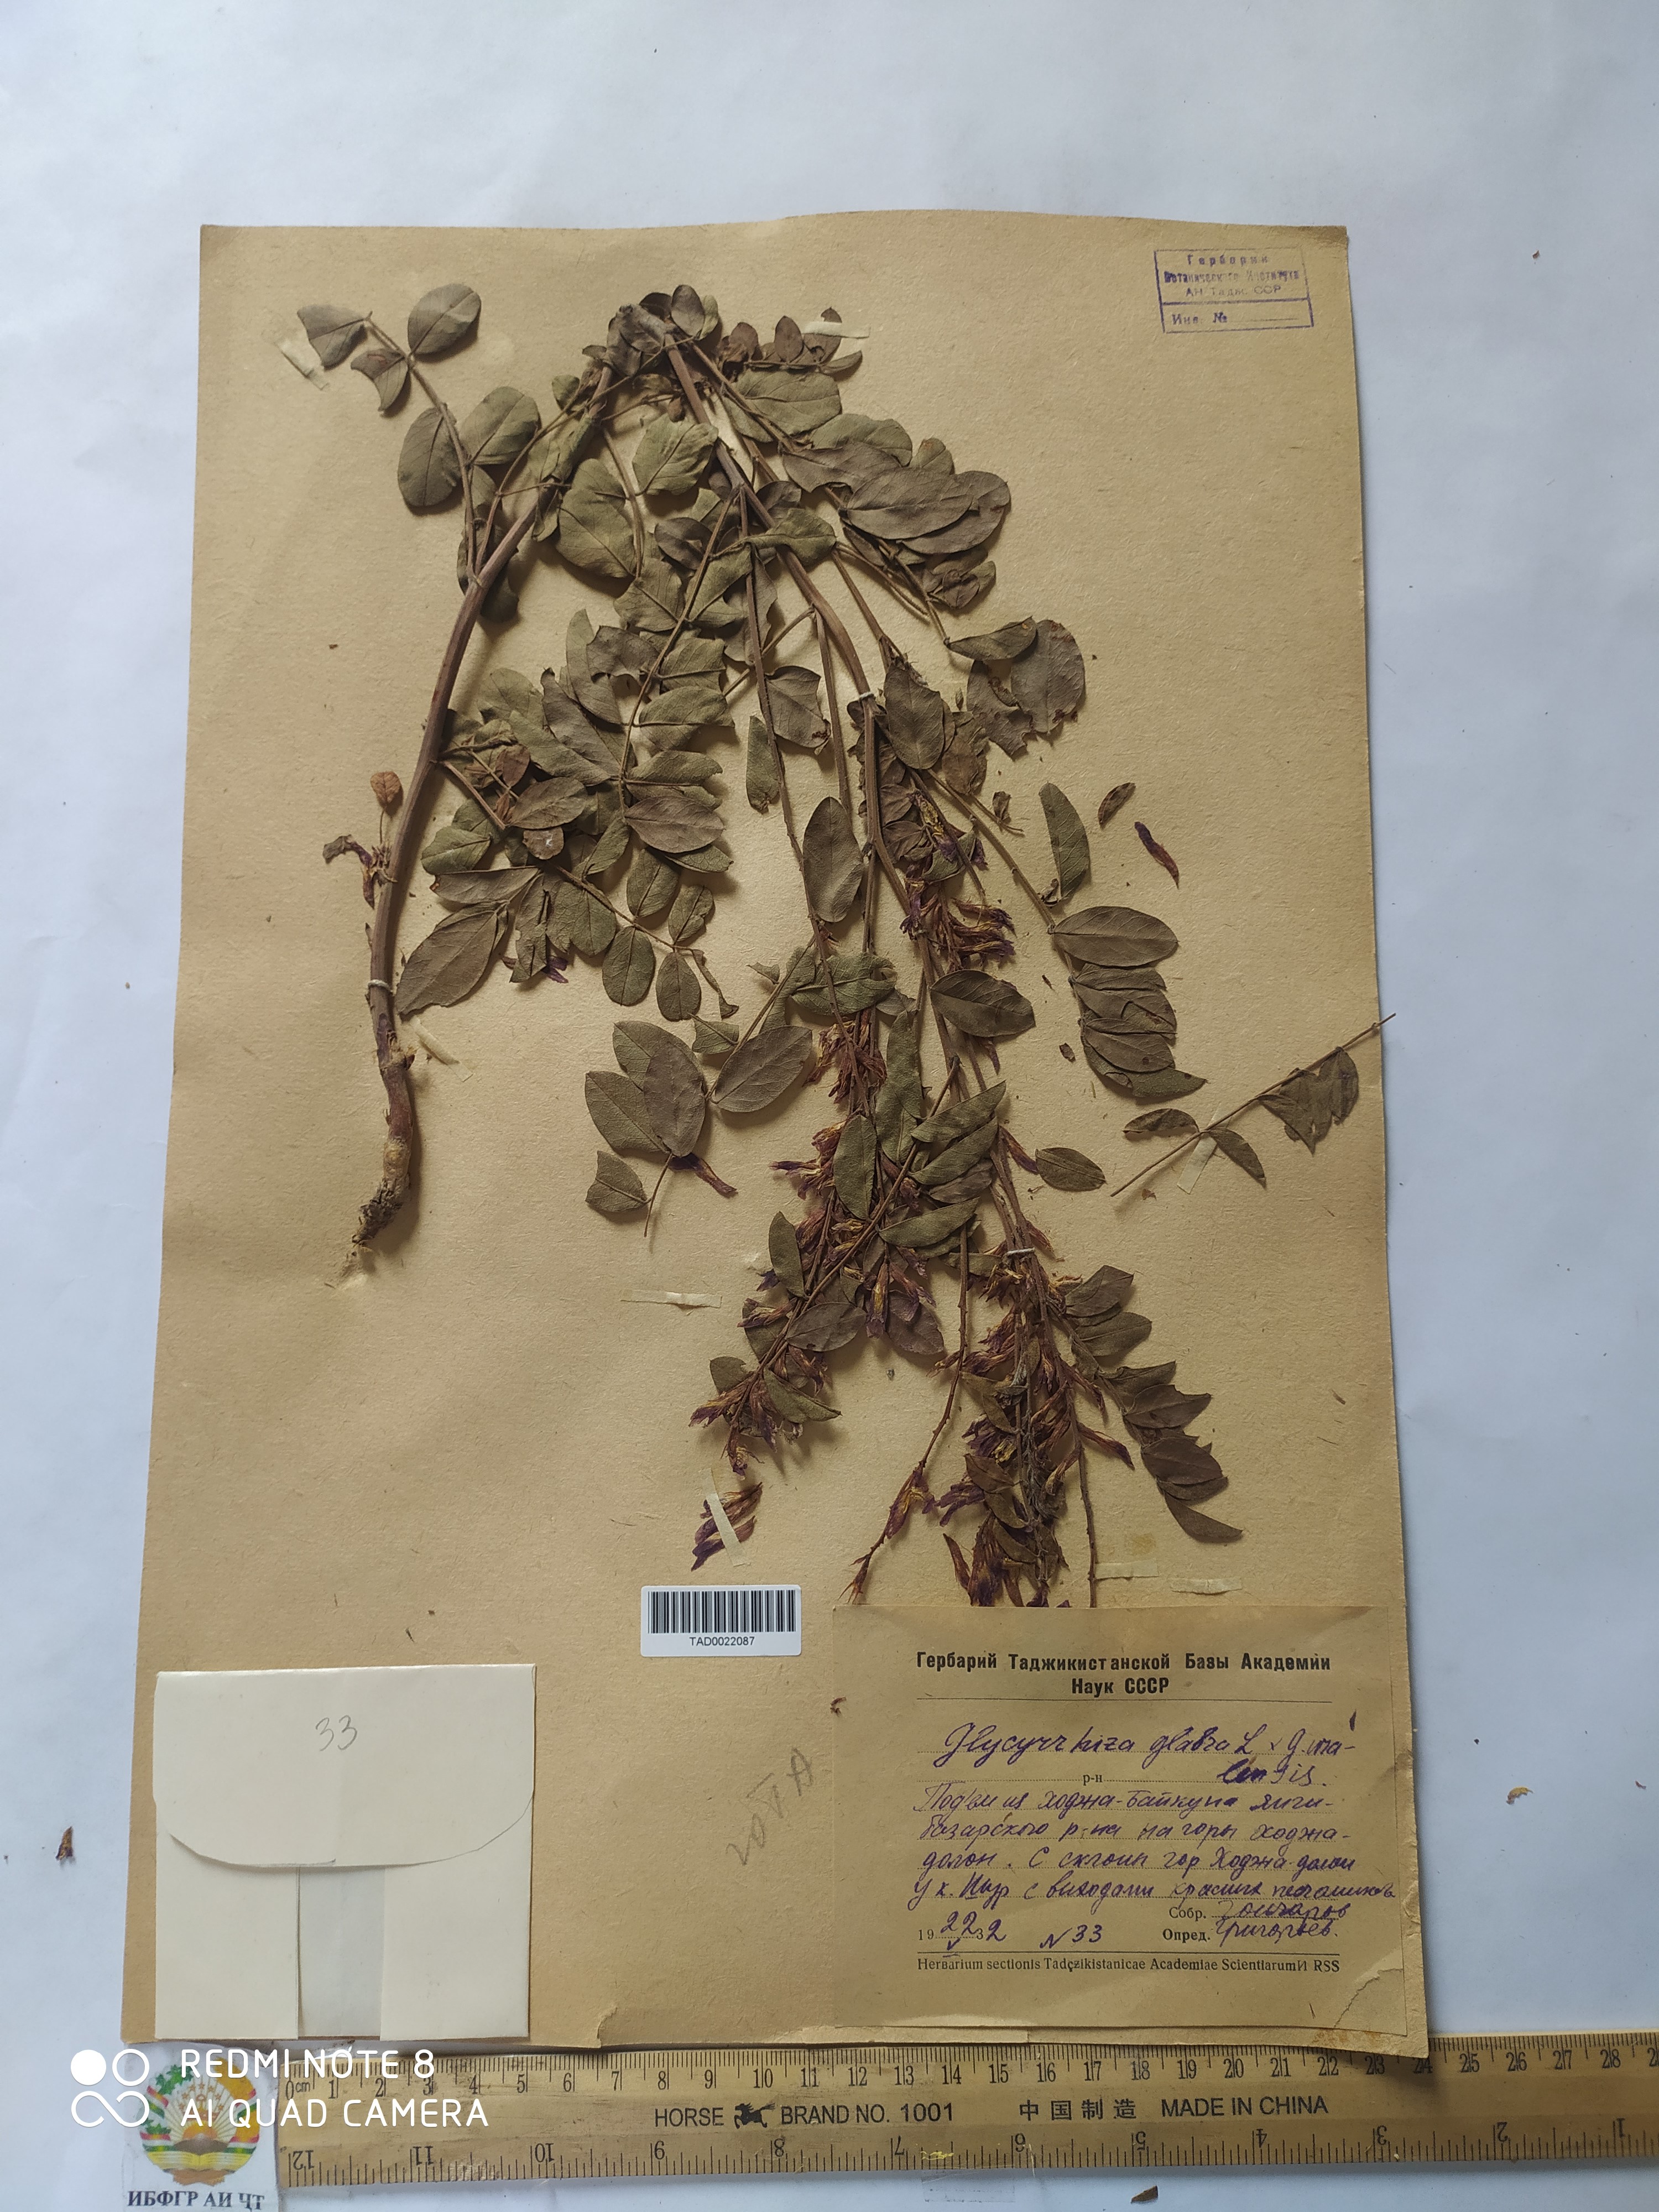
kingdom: Plantae
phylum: Tracheophyta
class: Magnoliopsida
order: Fabales
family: Fabaceae
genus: Glycyrrhiza
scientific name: Glycyrrhiza glabra
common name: Liquorice
